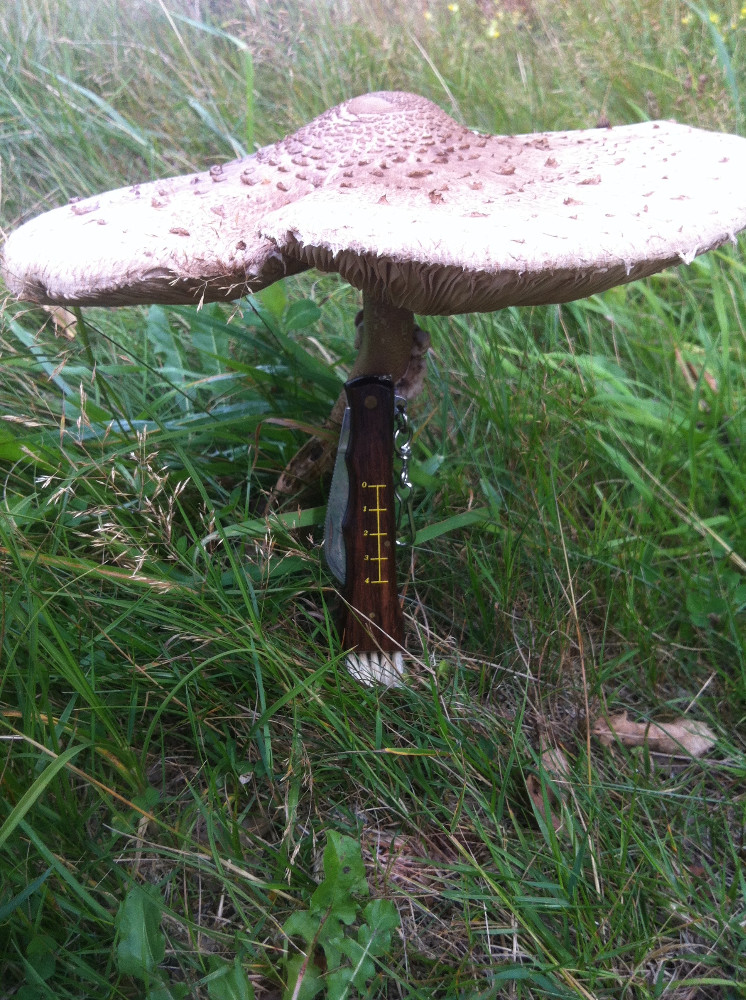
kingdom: Fungi
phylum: Basidiomycota
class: Agaricomycetes
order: Agaricales
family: Agaricaceae
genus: Macrolepiota
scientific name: Macrolepiota procera
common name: stor kæmpeparasolhat
